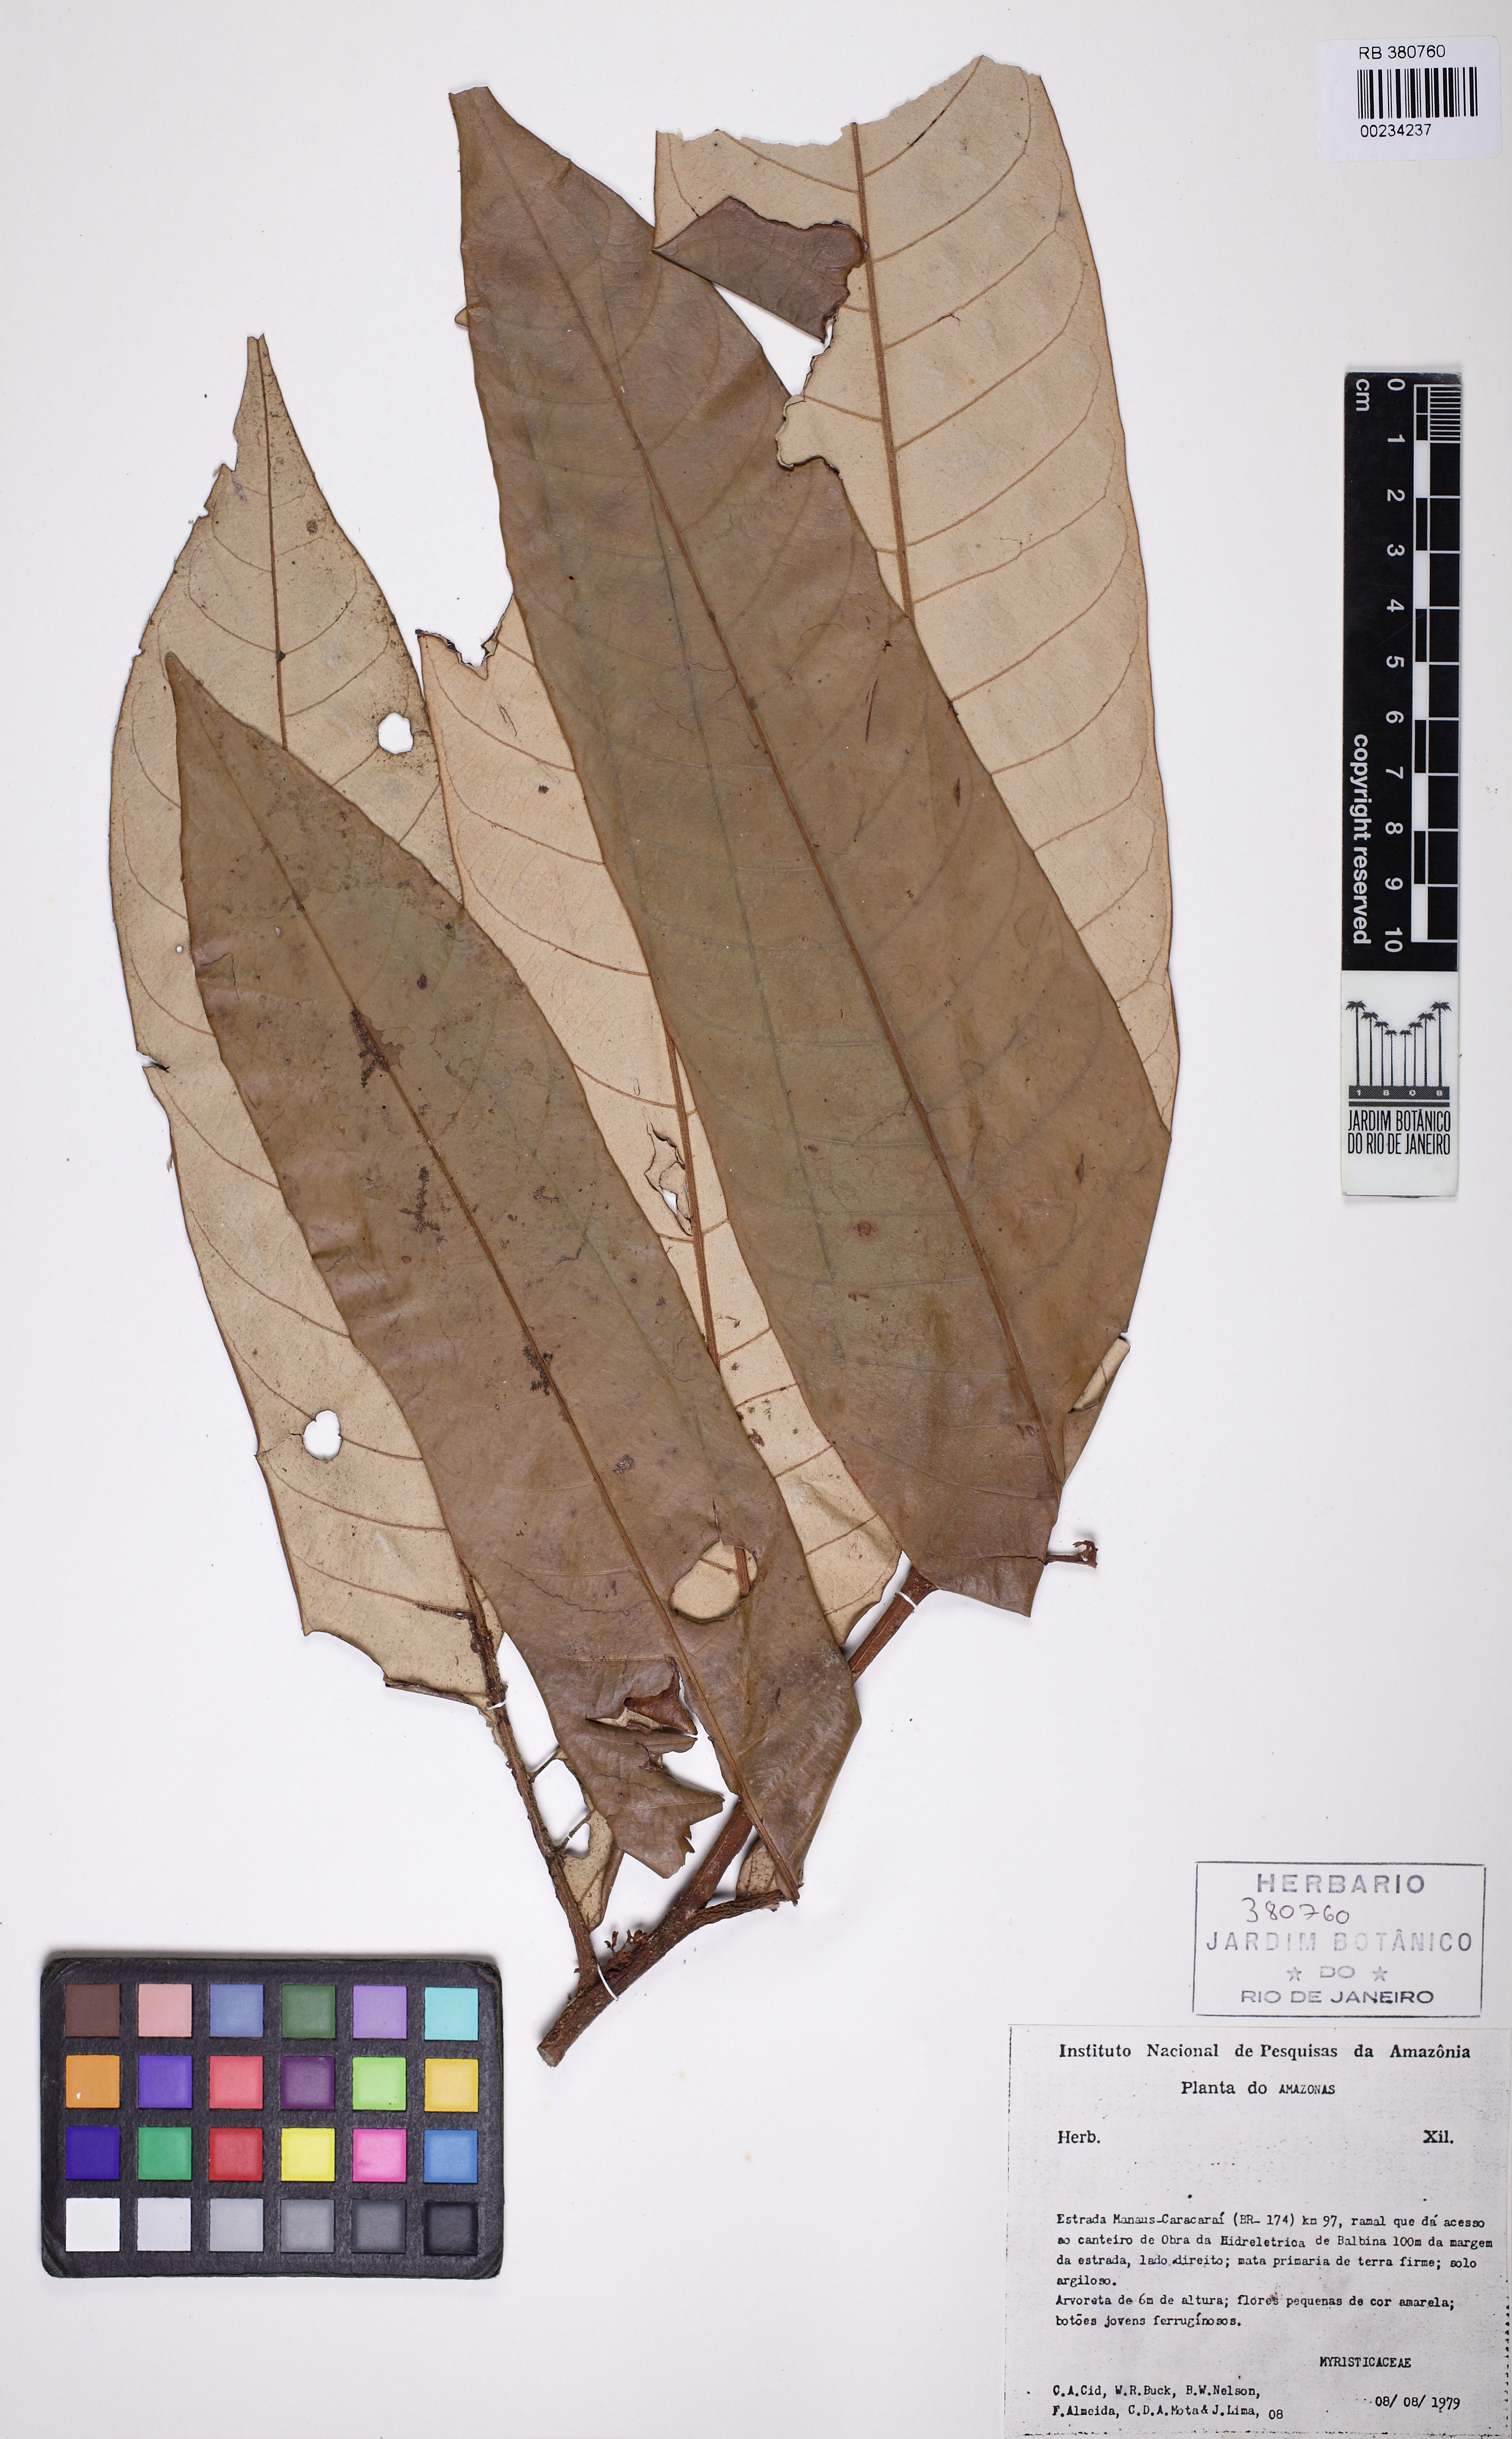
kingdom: Plantae
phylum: Tracheophyta
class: Magnoliopsida
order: Magnoliales
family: Myristicaceae
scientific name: Myristicaceae
